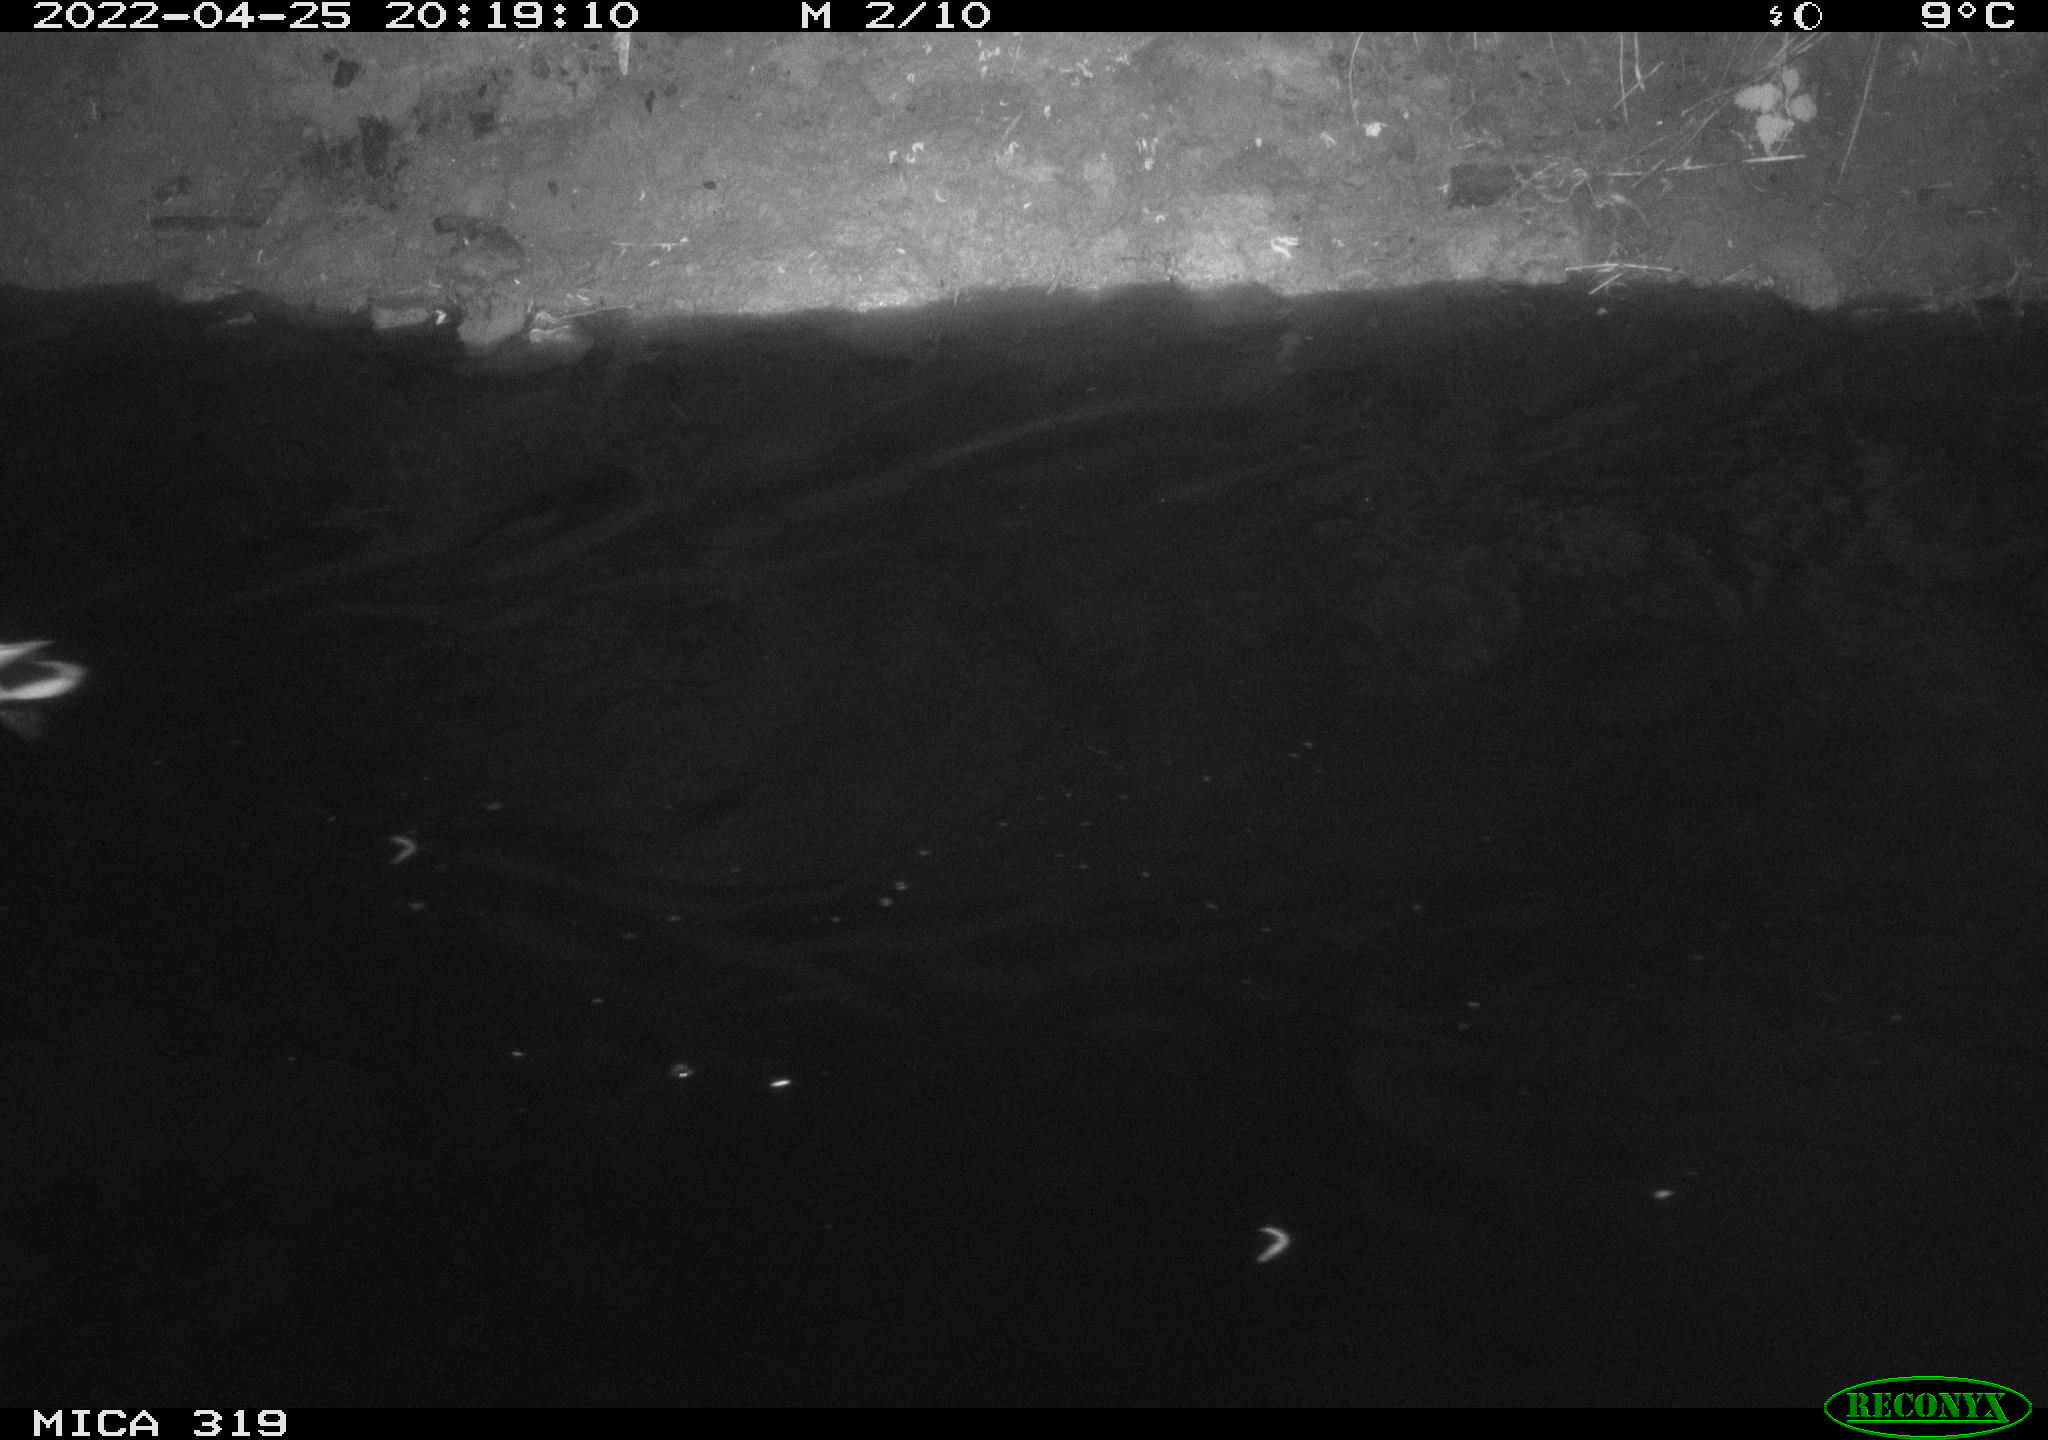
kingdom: Animalia
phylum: Chordata
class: Aves
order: Anseriformes
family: Anatidae
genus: Anas
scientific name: Anas platyrhynchos
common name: Mallard
